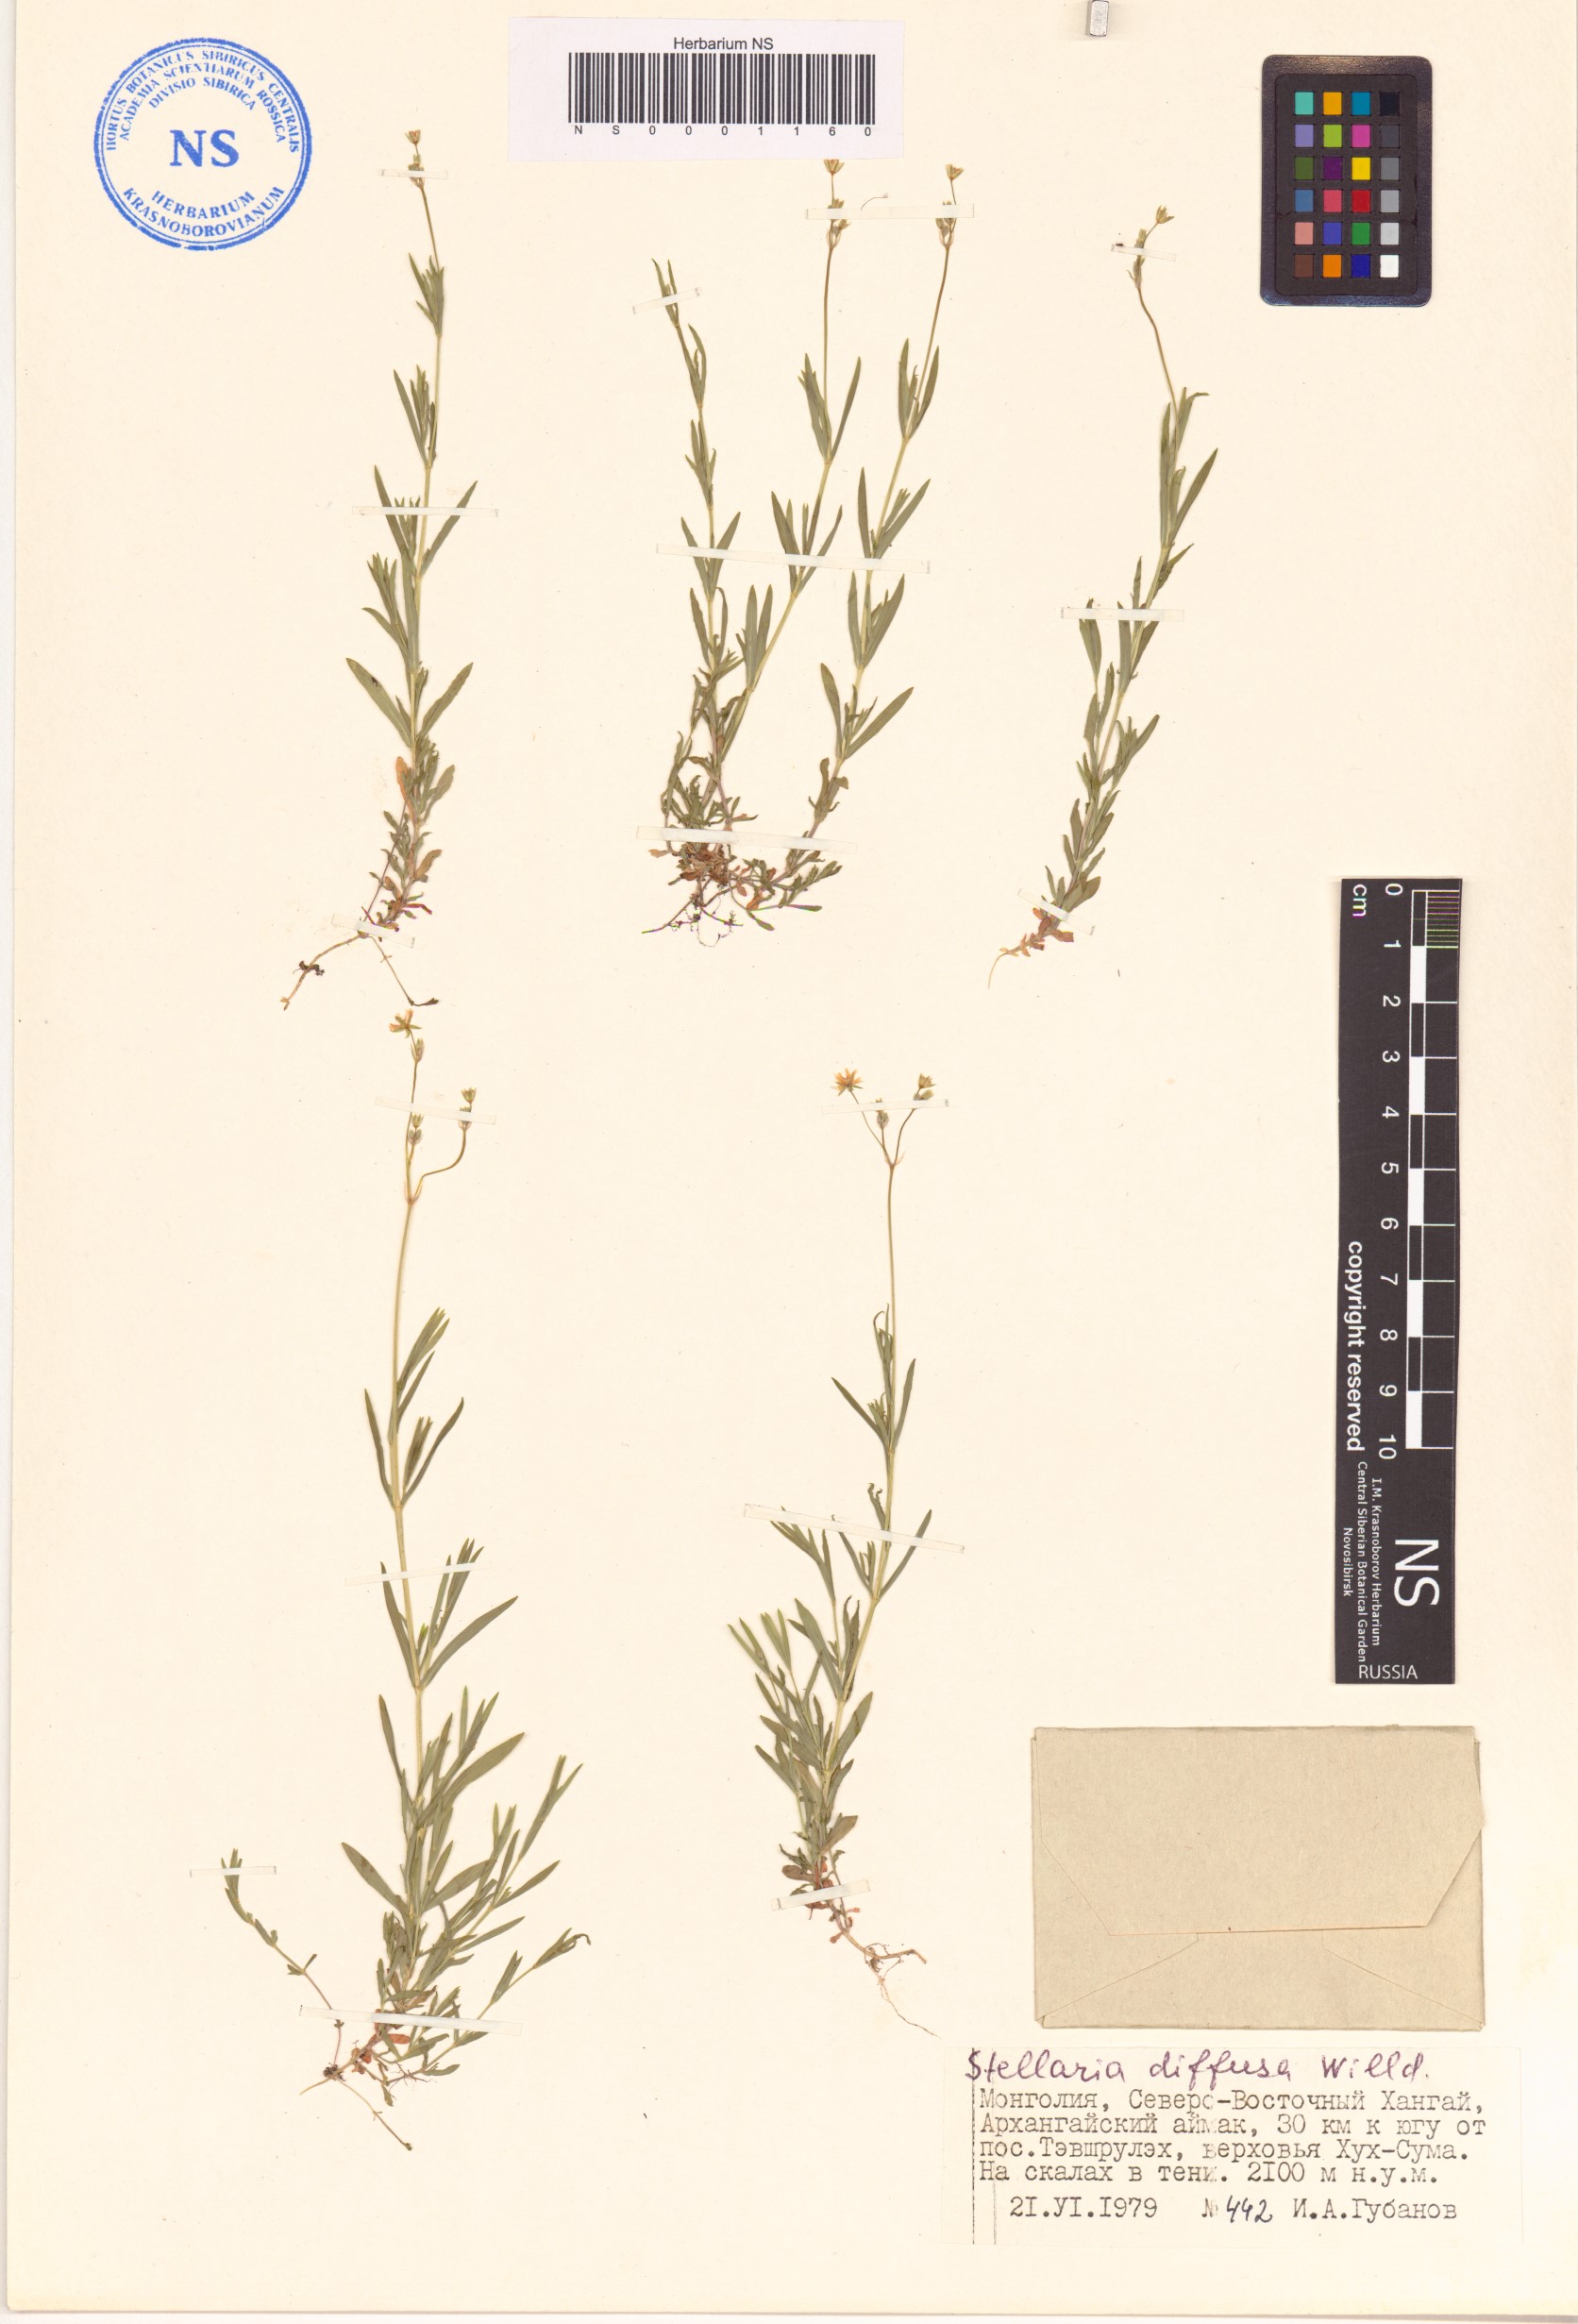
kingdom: Plantae
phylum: Tracheophyta
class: Magnoliopsida
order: Caryophyllales
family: Caryophyllaceae
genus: Stellaria
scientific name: Stellaria longifolia
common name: Long-leaved chickweed
